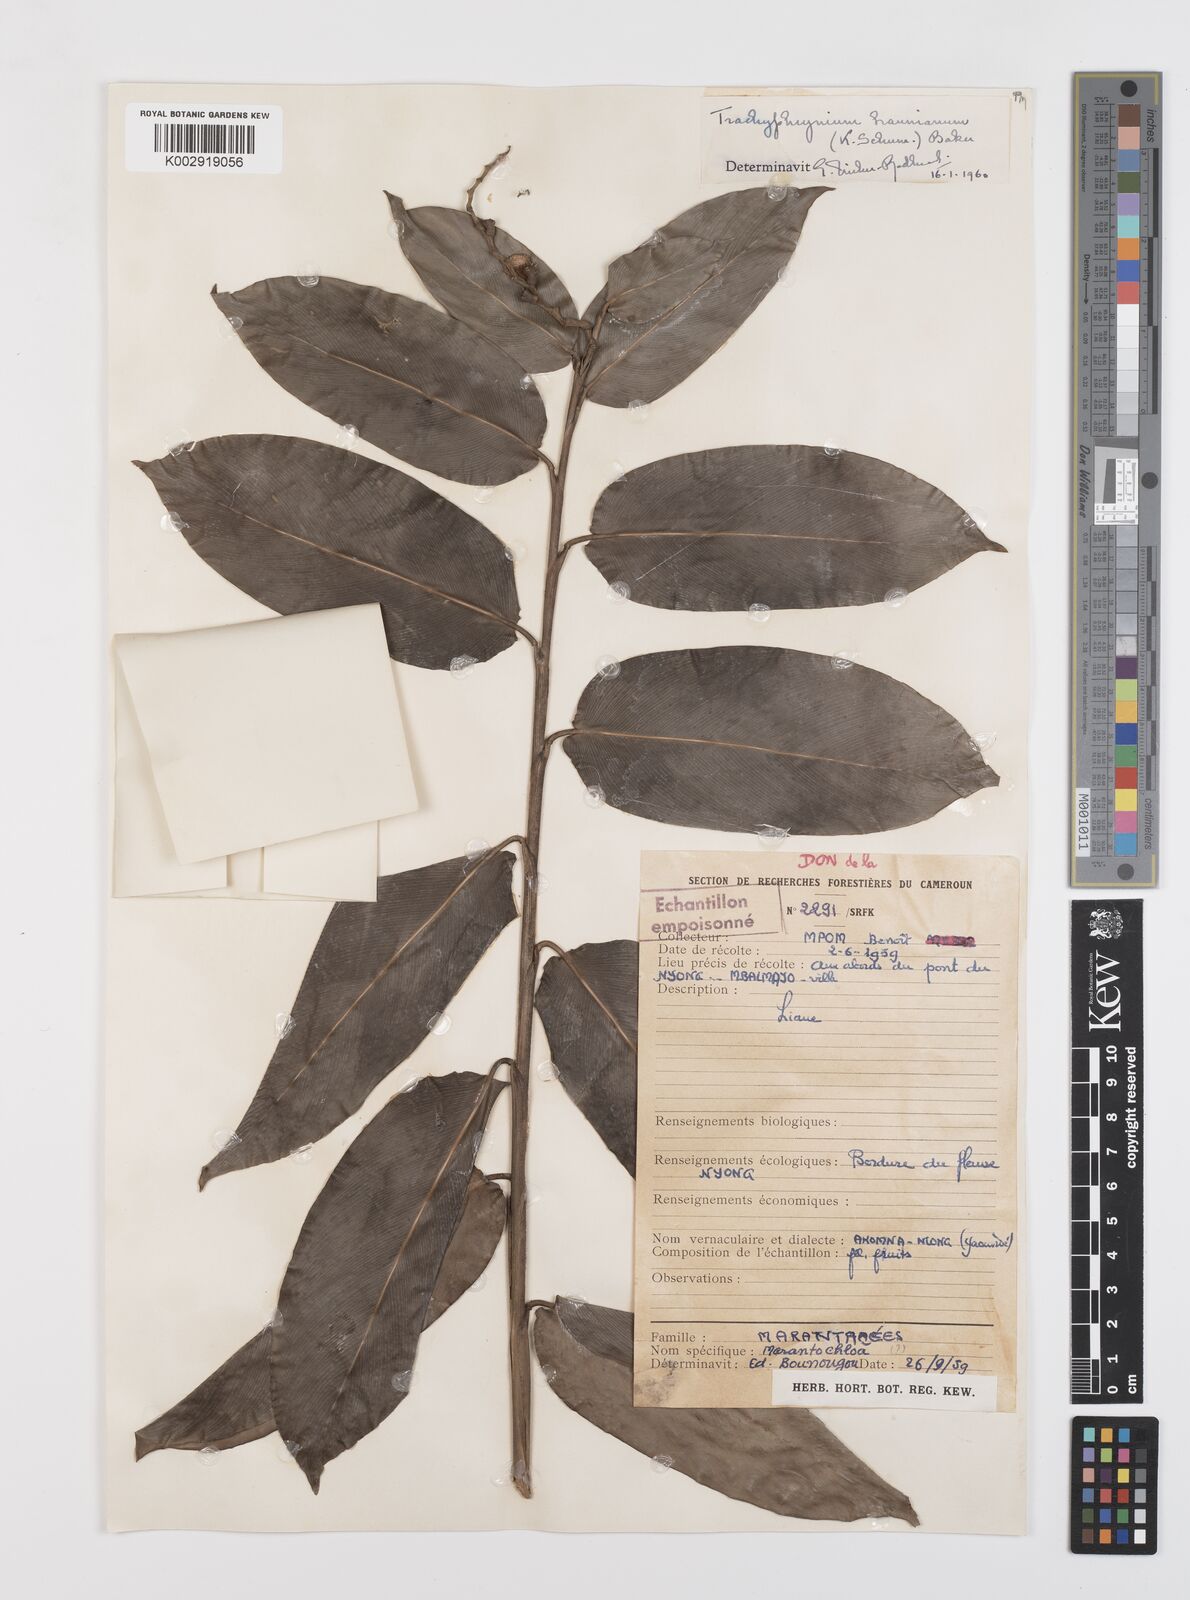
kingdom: Plantae
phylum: Tracheophyta
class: Liliopsida
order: Zingiberales
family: Marantaceae
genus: Trachyphrynium
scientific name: Trachyphrynium braunianum
